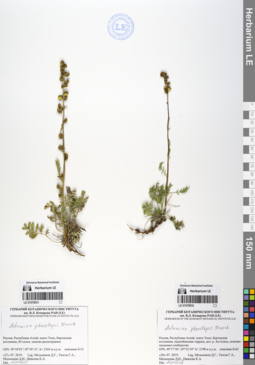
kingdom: Plantae
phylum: Tracheophyta
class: Magnoliopsida
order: Asterales
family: Asteraceae
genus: Artemisia
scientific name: Artemisia phaeolepis
